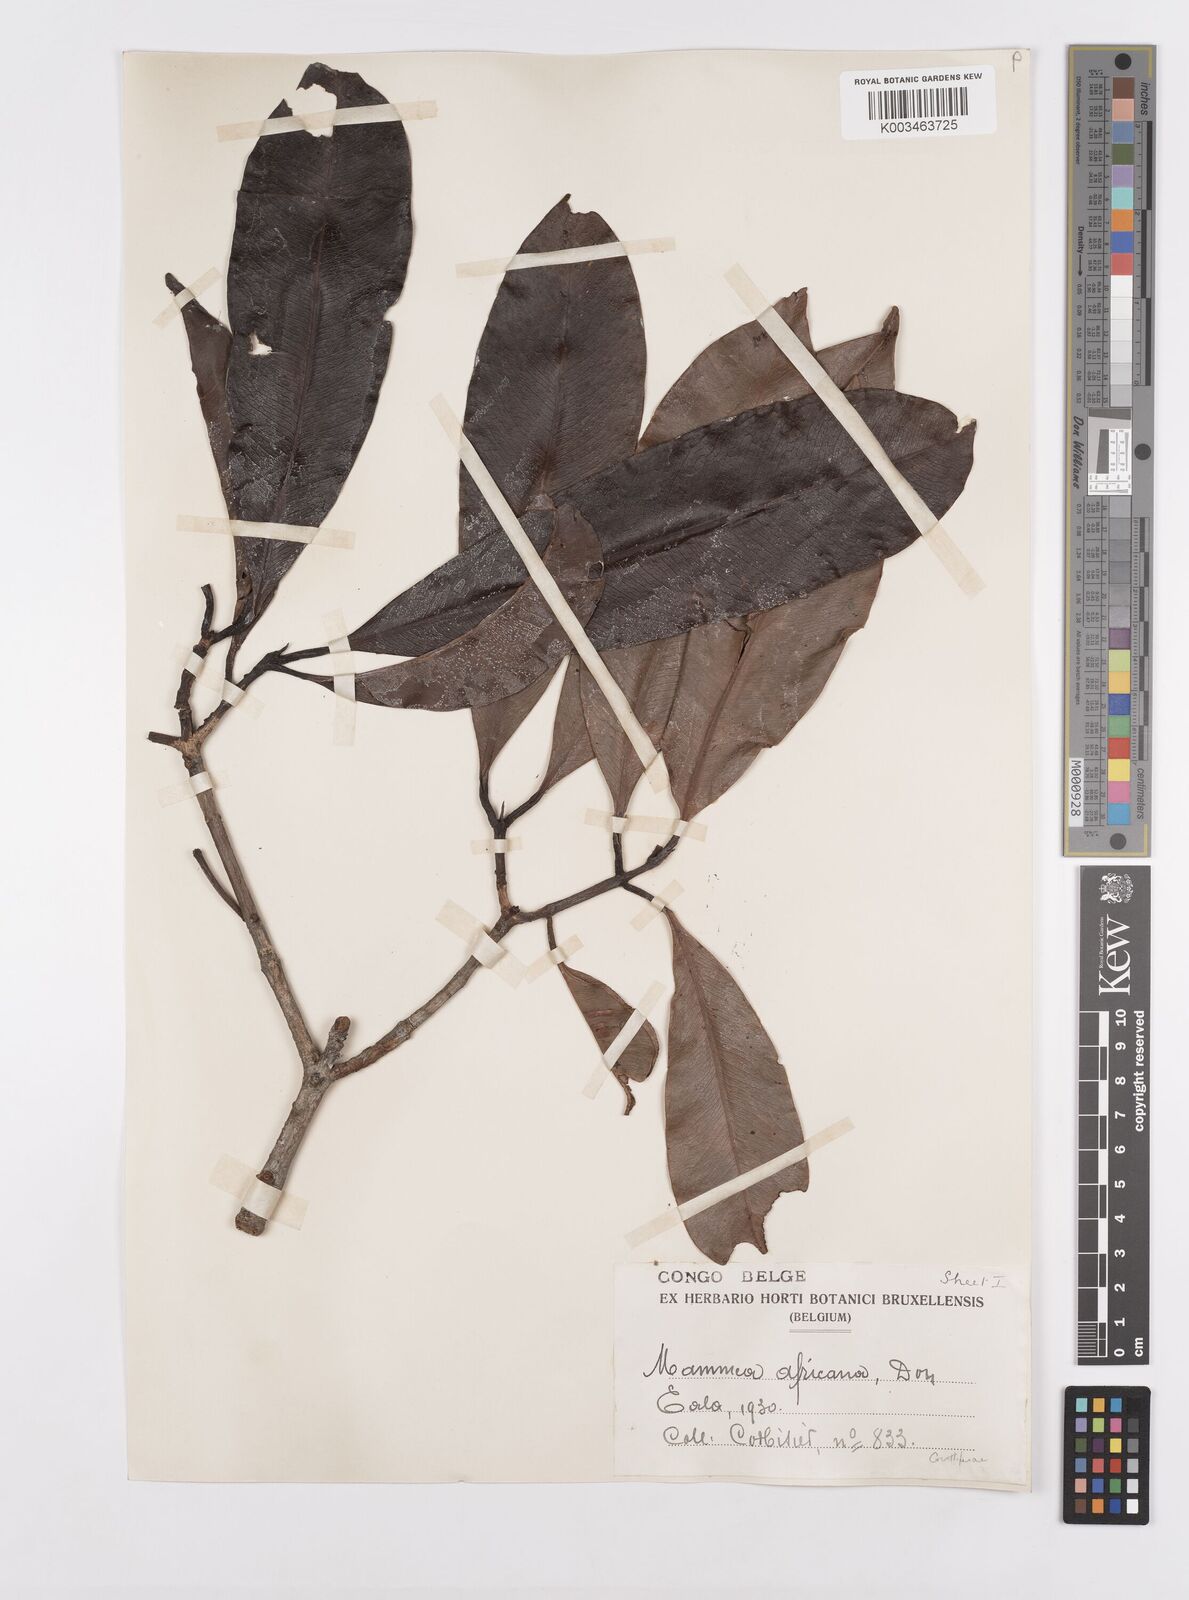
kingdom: Plantae
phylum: Tracheophyta
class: Magnoliopsida
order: Malpighiales
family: Calophyllaceae
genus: Mammea
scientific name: Mammea africana
